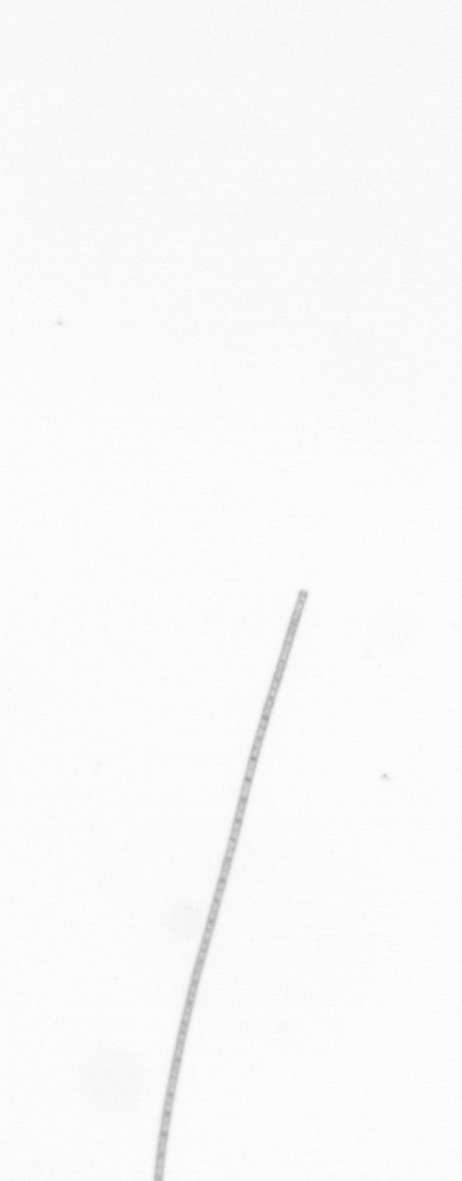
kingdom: Chromista
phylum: Ochrophyta
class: Bacillariophyceae
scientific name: Bacillariophyceae
